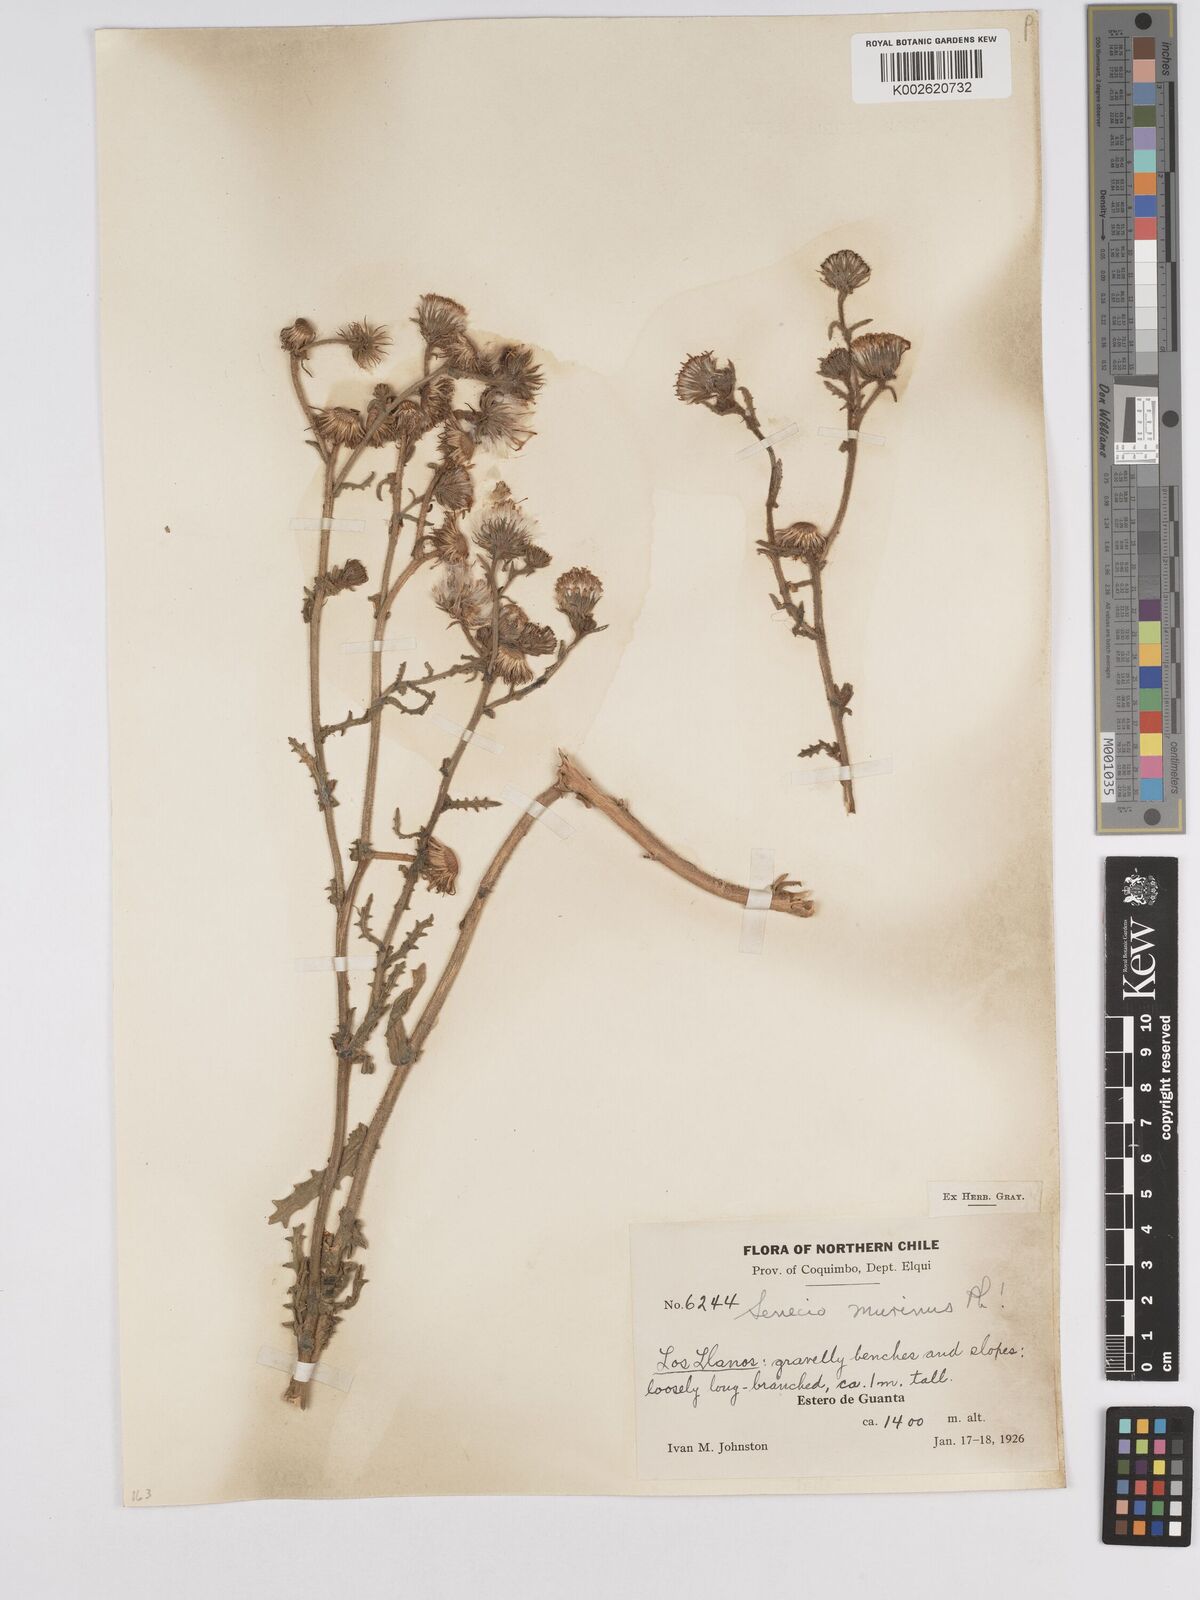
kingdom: Plantae
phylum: Tracheophyta
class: Magnoliopsida
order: Asterales
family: Asteraceae
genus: Senecio
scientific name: Senecio murinus
